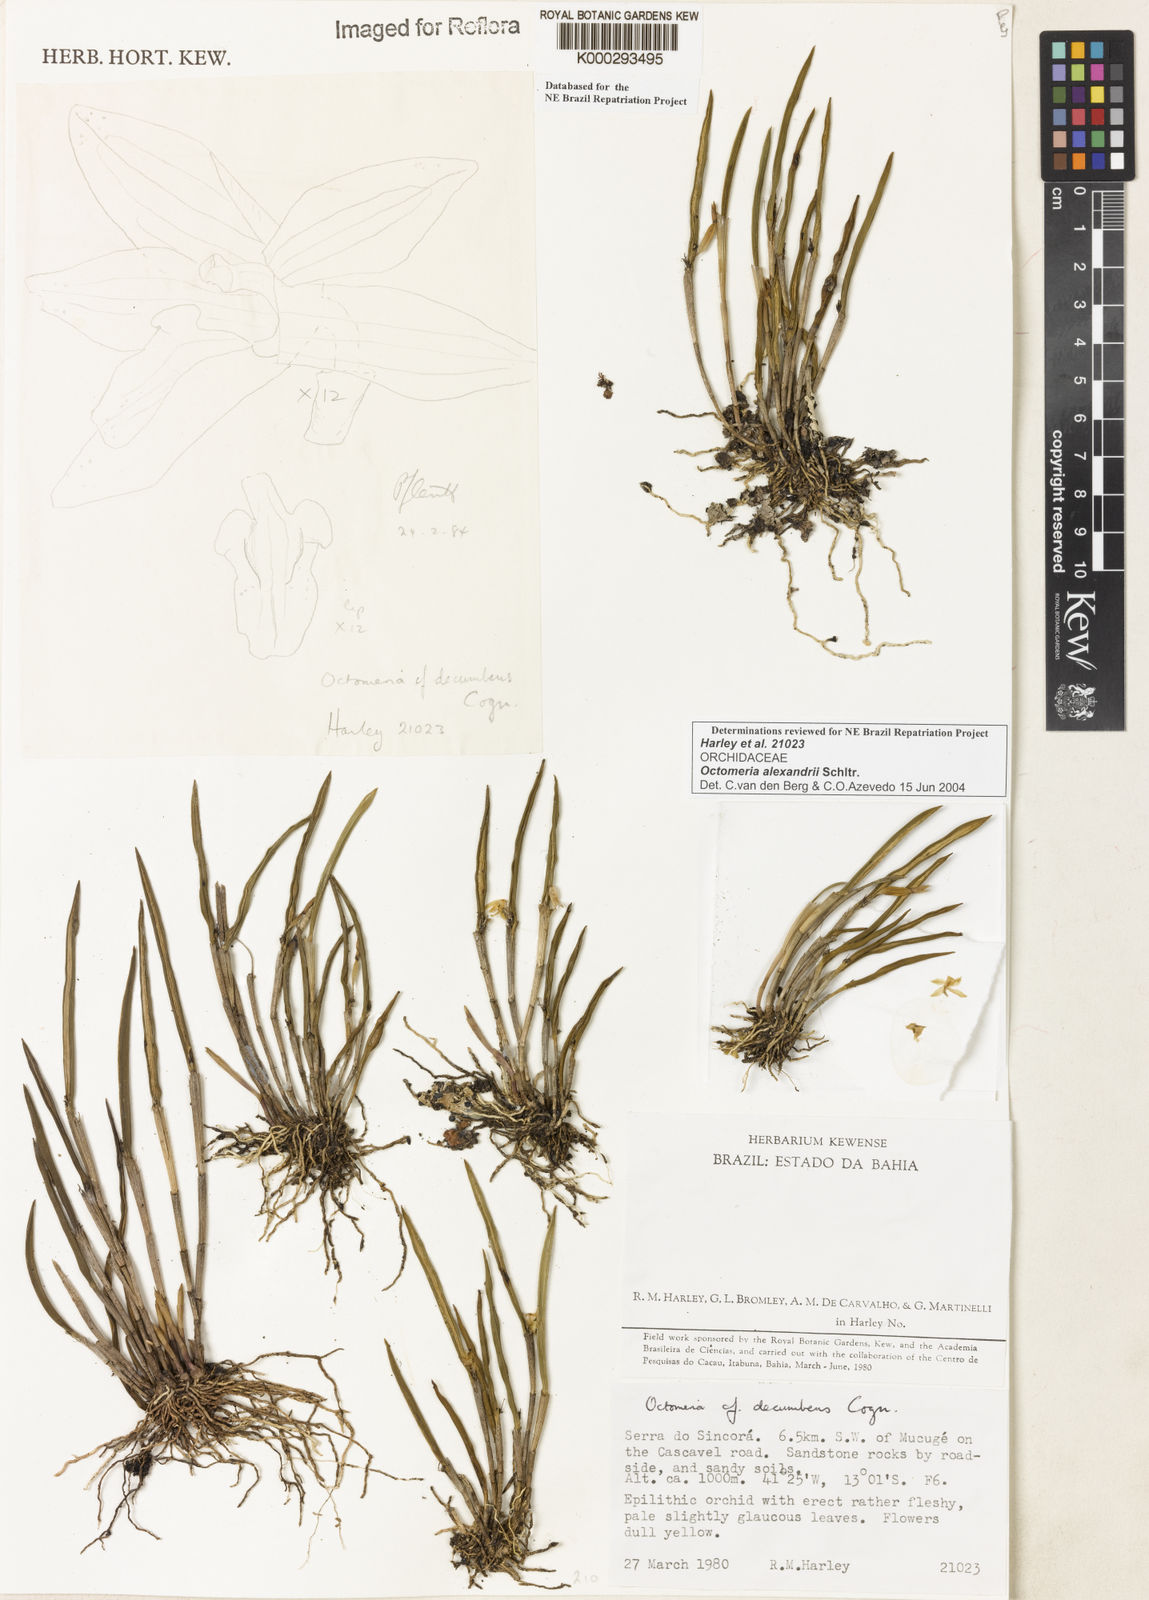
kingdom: Plantae
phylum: Tracheophyta
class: Liliopsida
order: Asparagales
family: Orchidaceae
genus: Octomeria
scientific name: Octomeria alexandri
